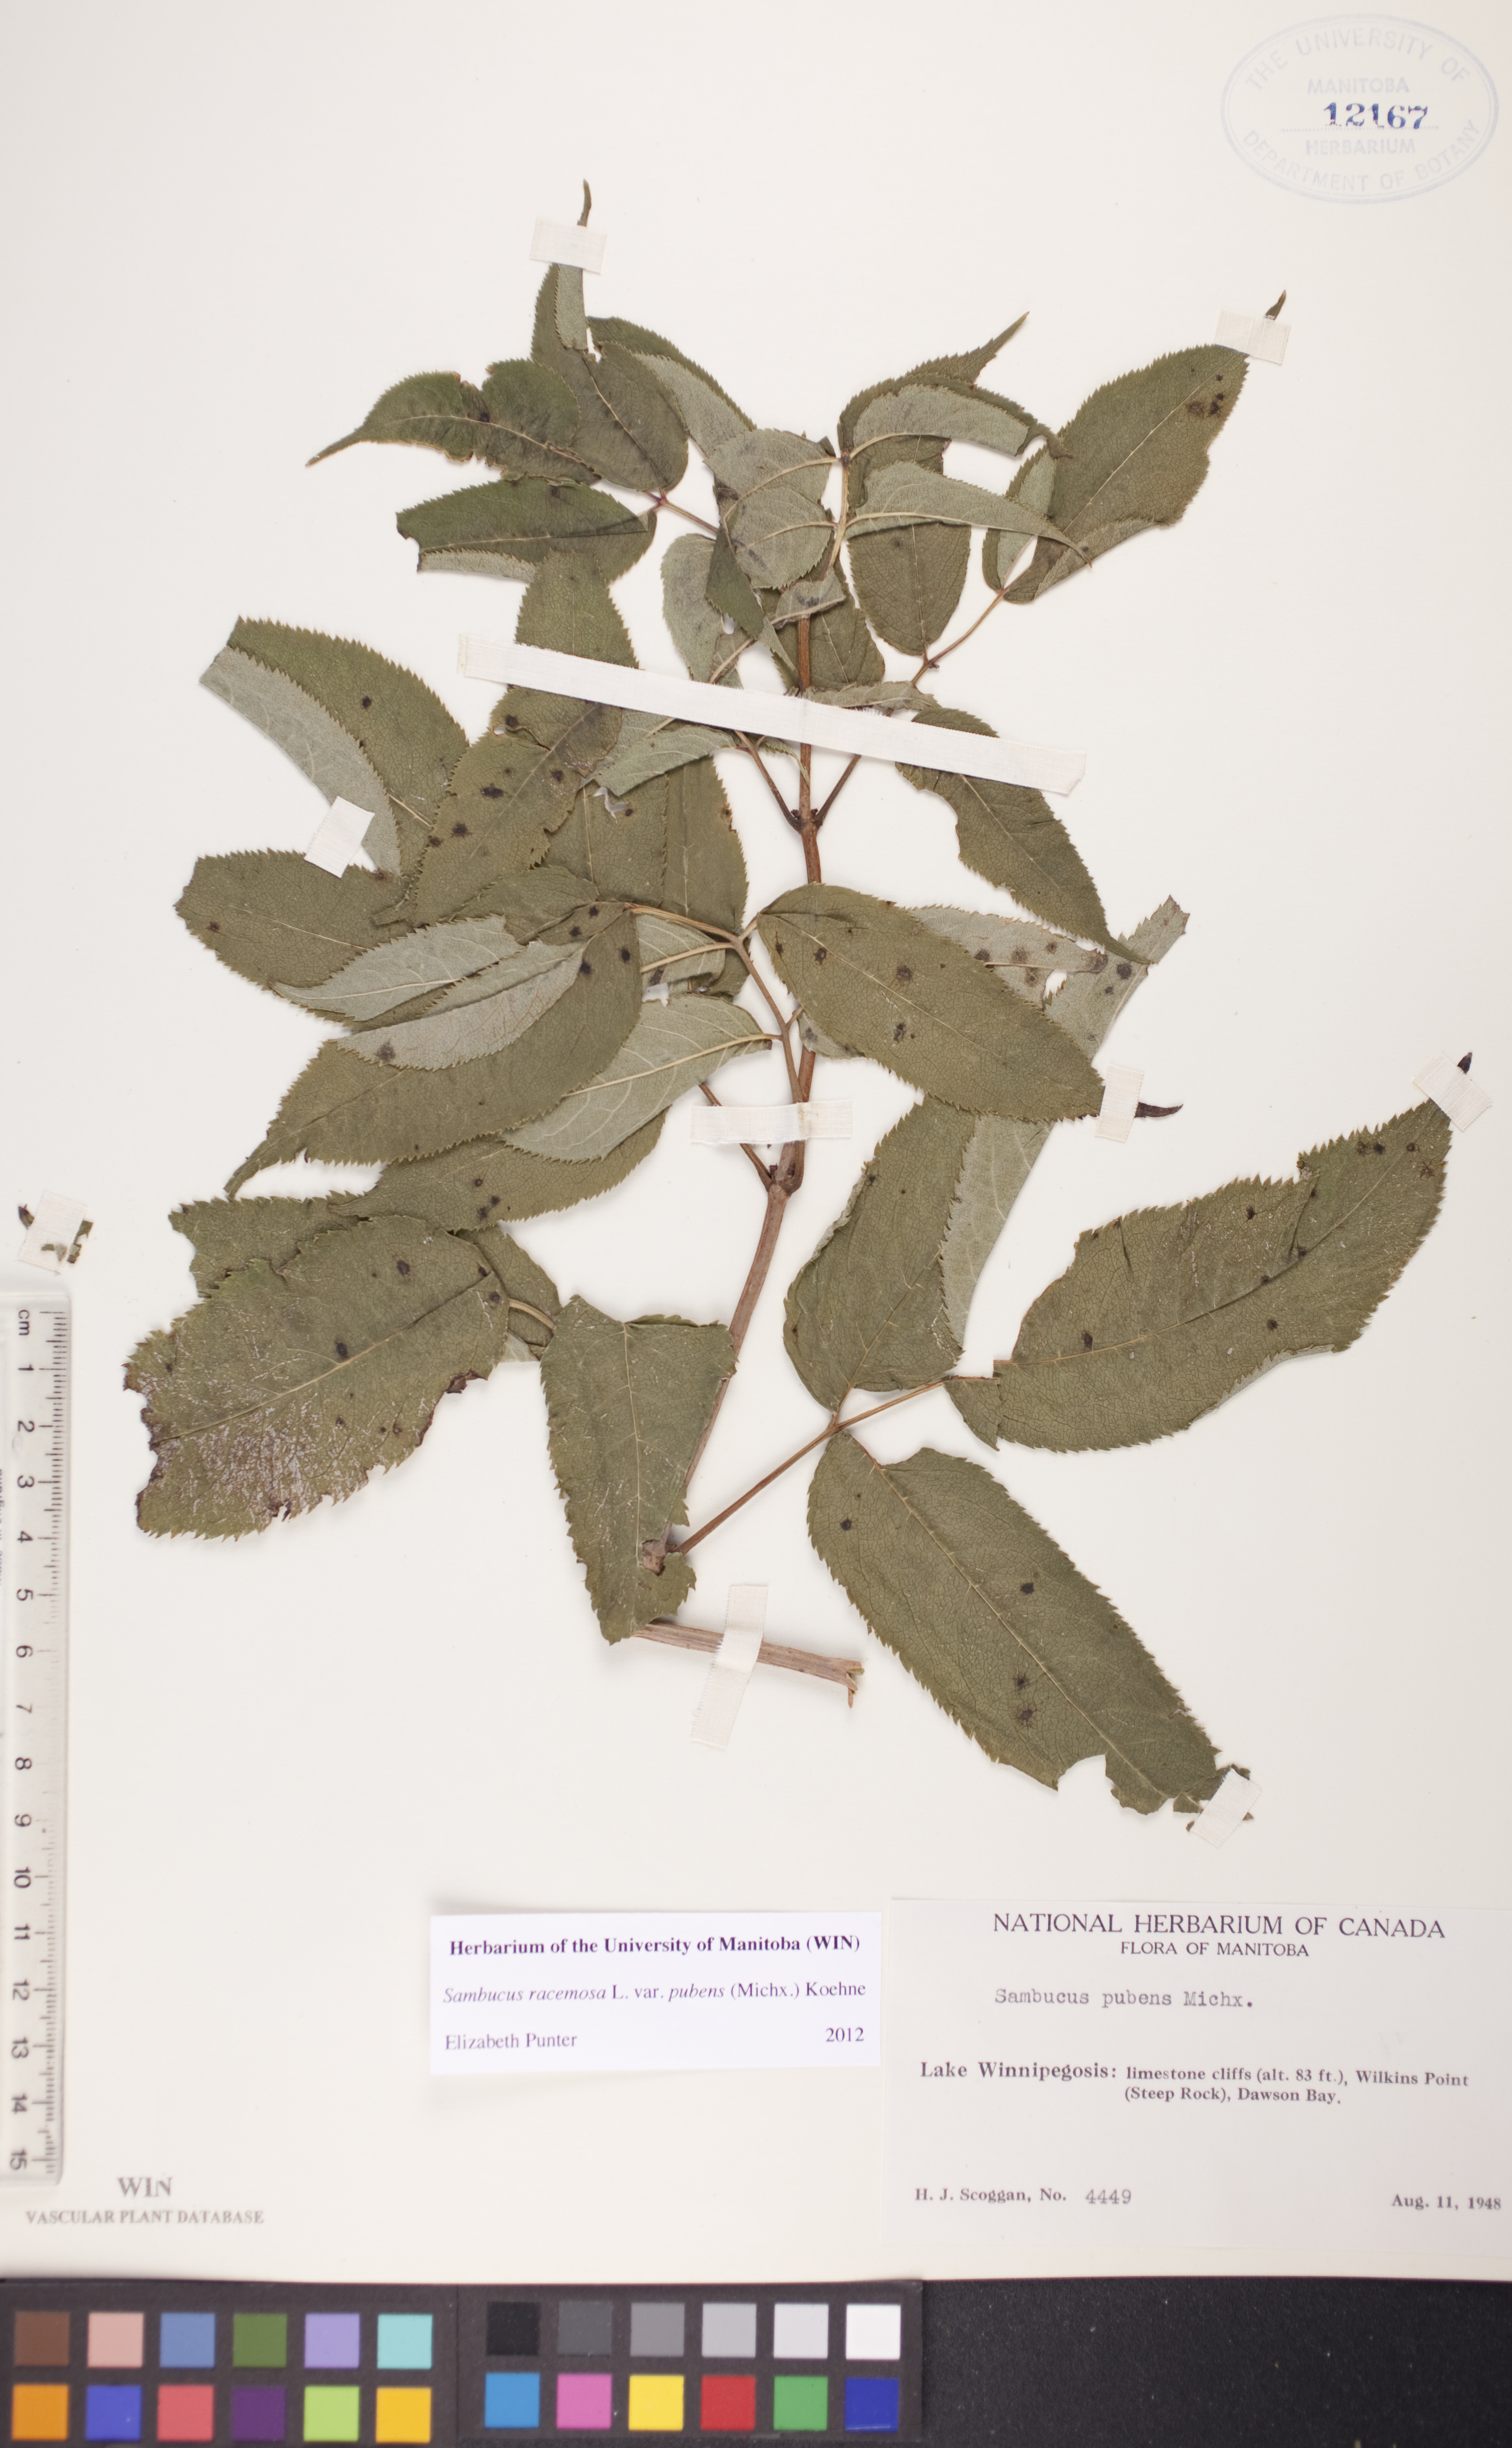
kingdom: Plantae
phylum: Tracheophyta
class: Magnoliopsida
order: Dipsacales
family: Viburnaceae
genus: Sambucus
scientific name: Sambucus racemosa
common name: Red-berried elder
